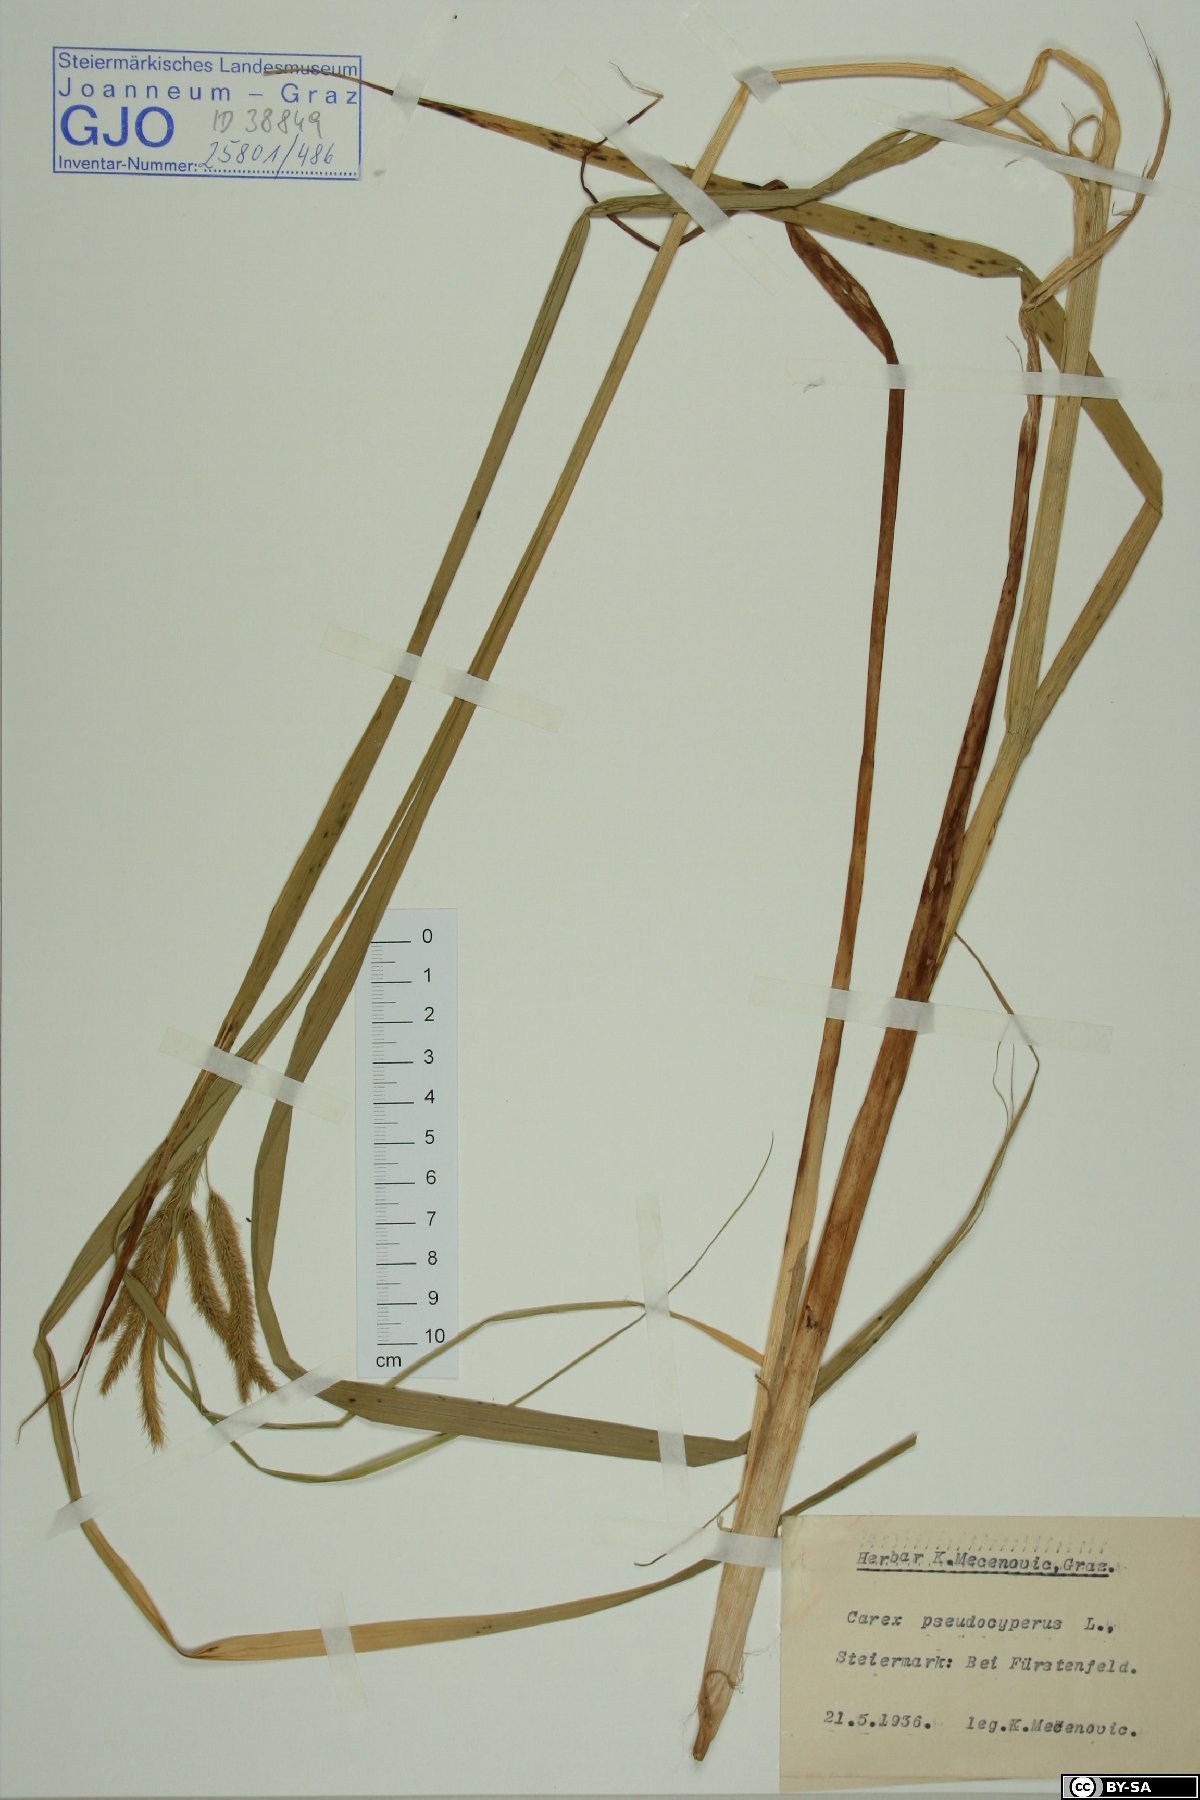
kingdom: Plantae
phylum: Tracheophyta
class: Liliopsida
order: Poales
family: Cyperaceae
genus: Carex
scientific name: Carex pseudocyperus
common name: Cyperus sedge
